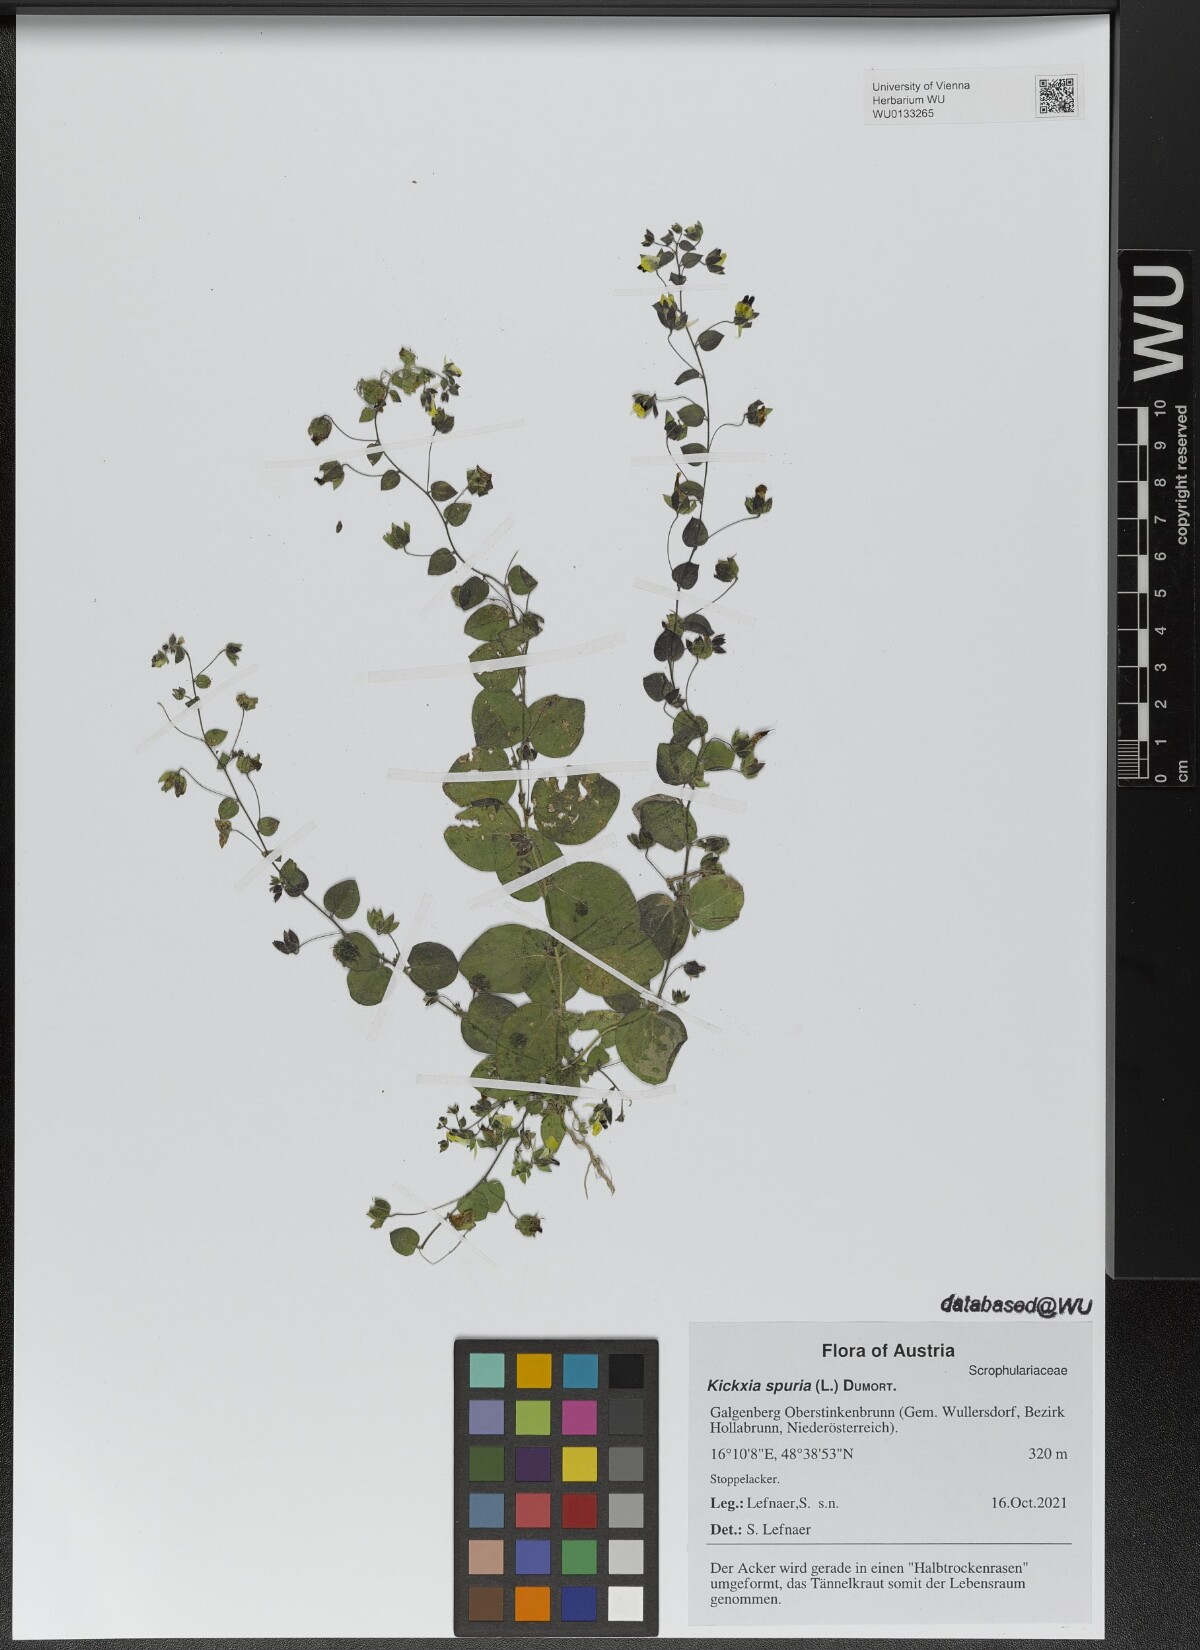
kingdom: Plantae
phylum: Tracheophyta
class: Magnoliopsida
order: Lamiales
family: Plantaginaceae
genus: Kickxia
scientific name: Kickxia spuria
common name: Round-leaved fluellen
